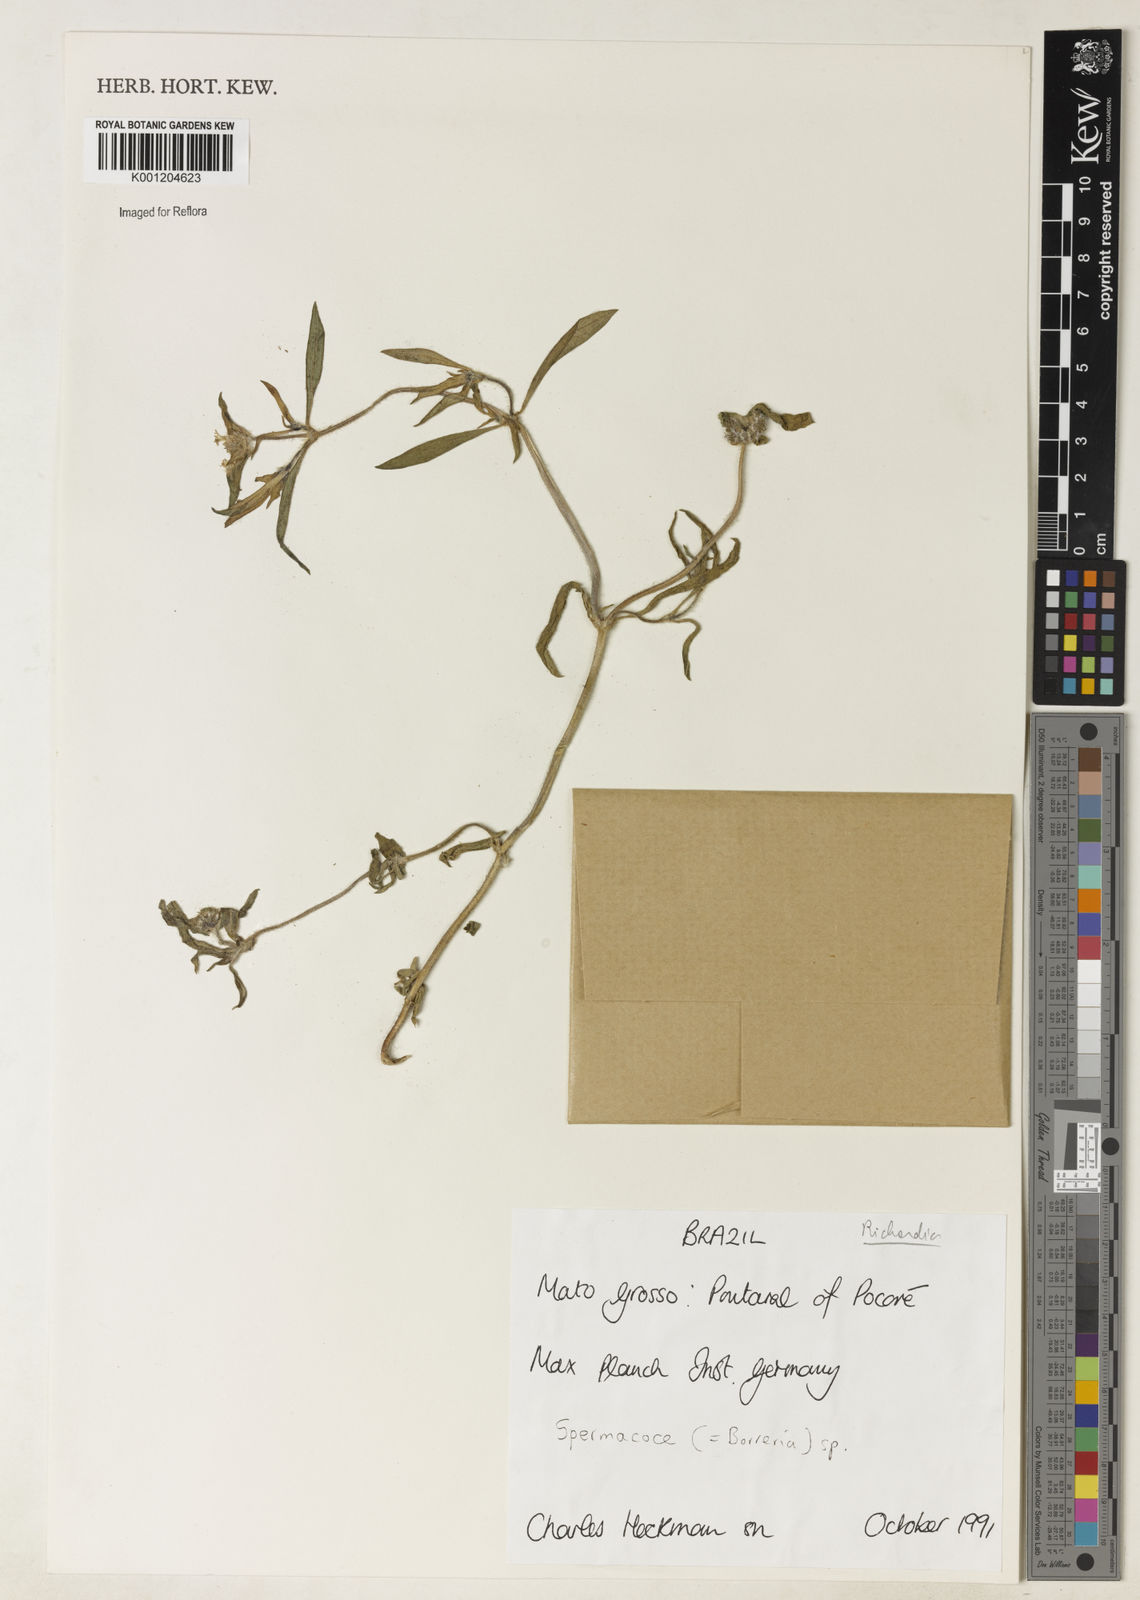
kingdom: Plantae
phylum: Tracheophyta
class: Magnoliopsida
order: Gentianales
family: Rubiaceae
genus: Richardia
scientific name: Richardia
